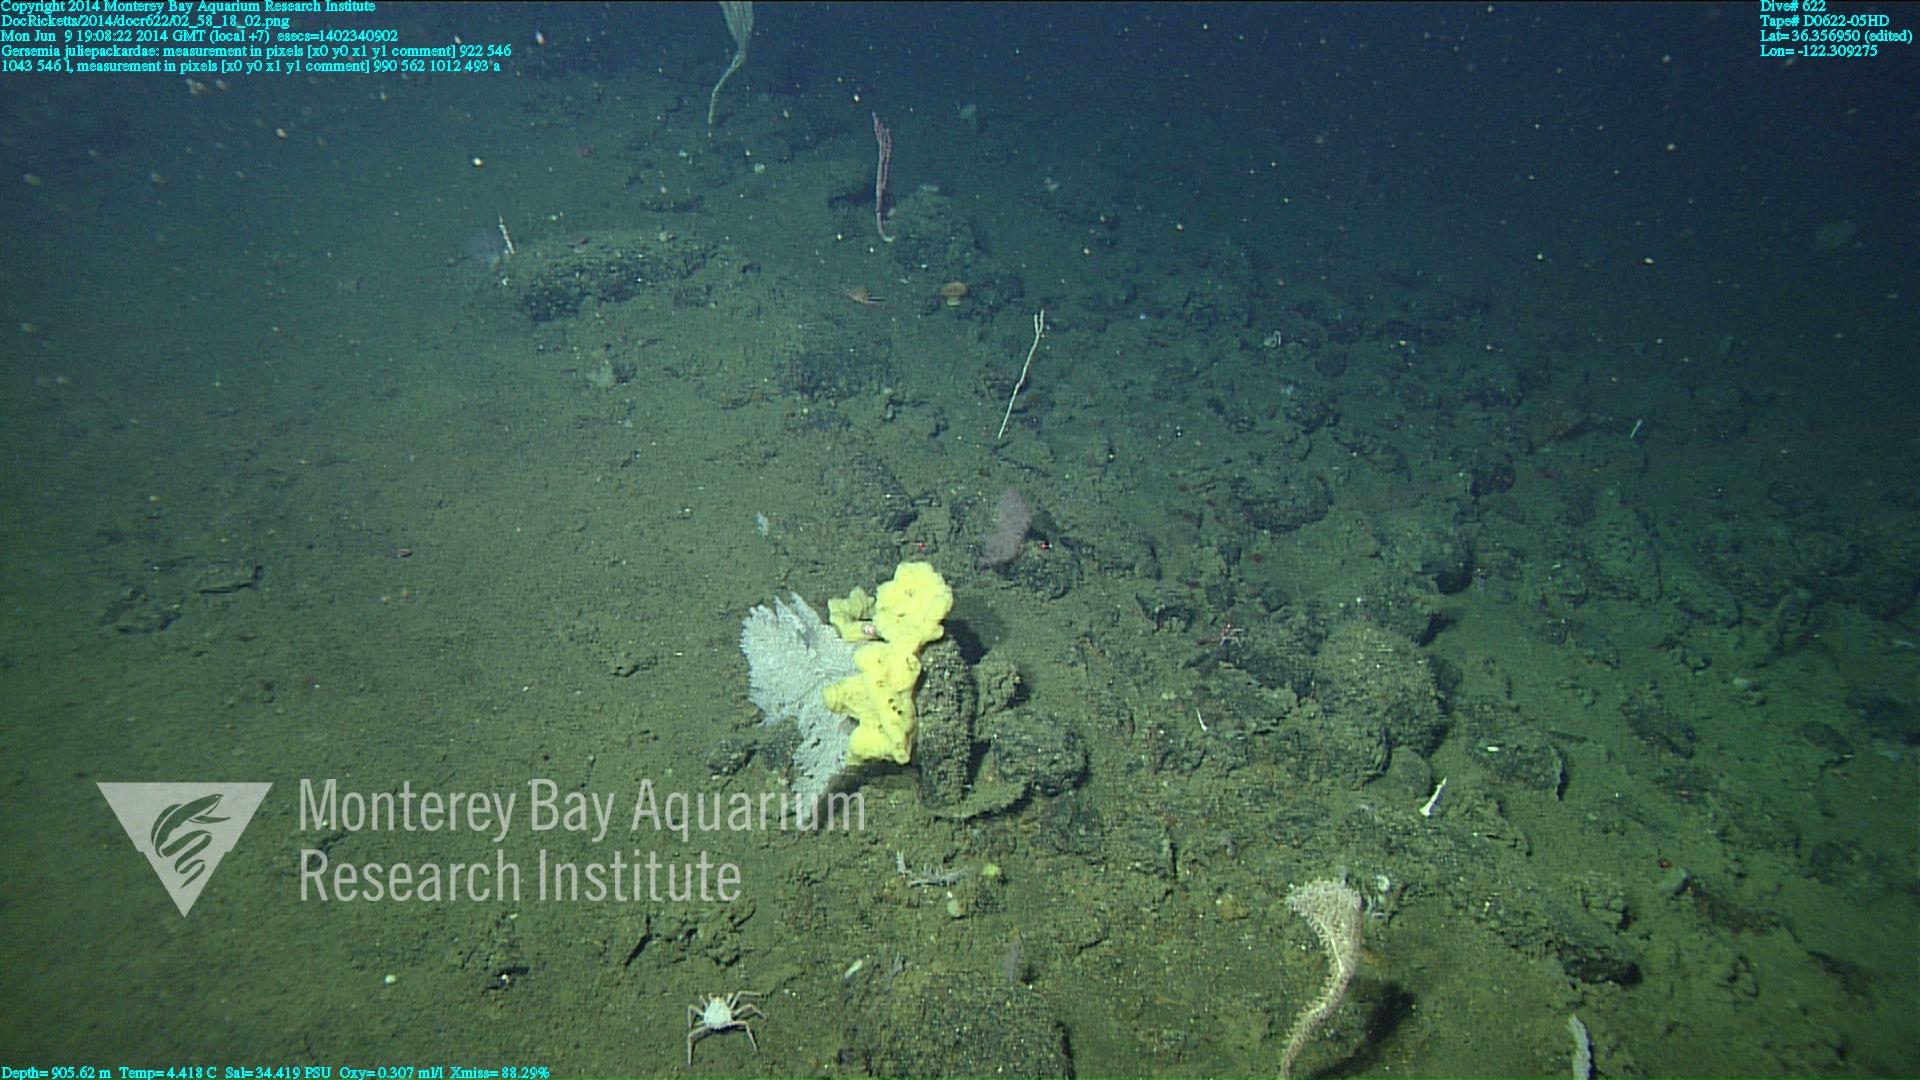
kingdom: Animalia
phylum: Cnidaria
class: Anthozoa
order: Malacalcyonacea
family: Alcyoniidae
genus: Gersemia
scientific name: Gersemia juliepackardae
